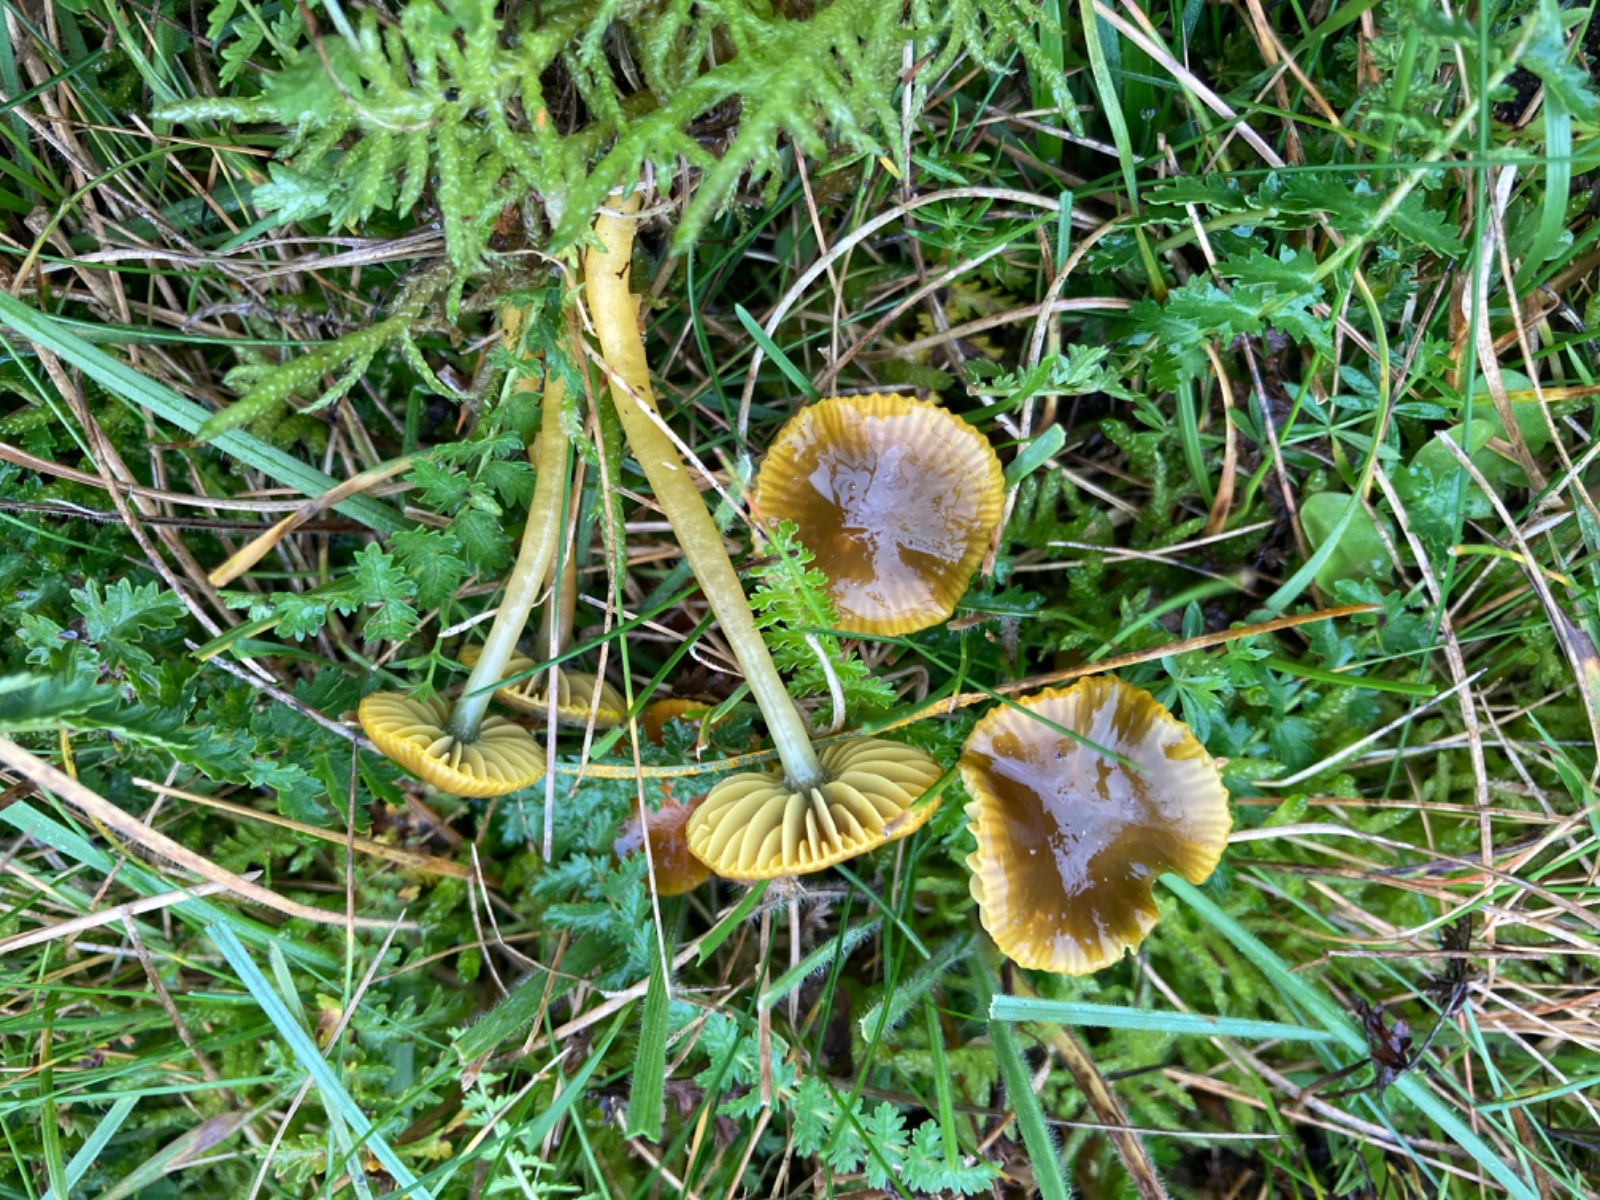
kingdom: Fungi
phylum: Basidiomycota
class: Agaricomycetes
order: Agaricales
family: Hygrophoraceae
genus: Gliophorus
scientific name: Gliophorus psittacinus
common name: papegøje-vokshat
